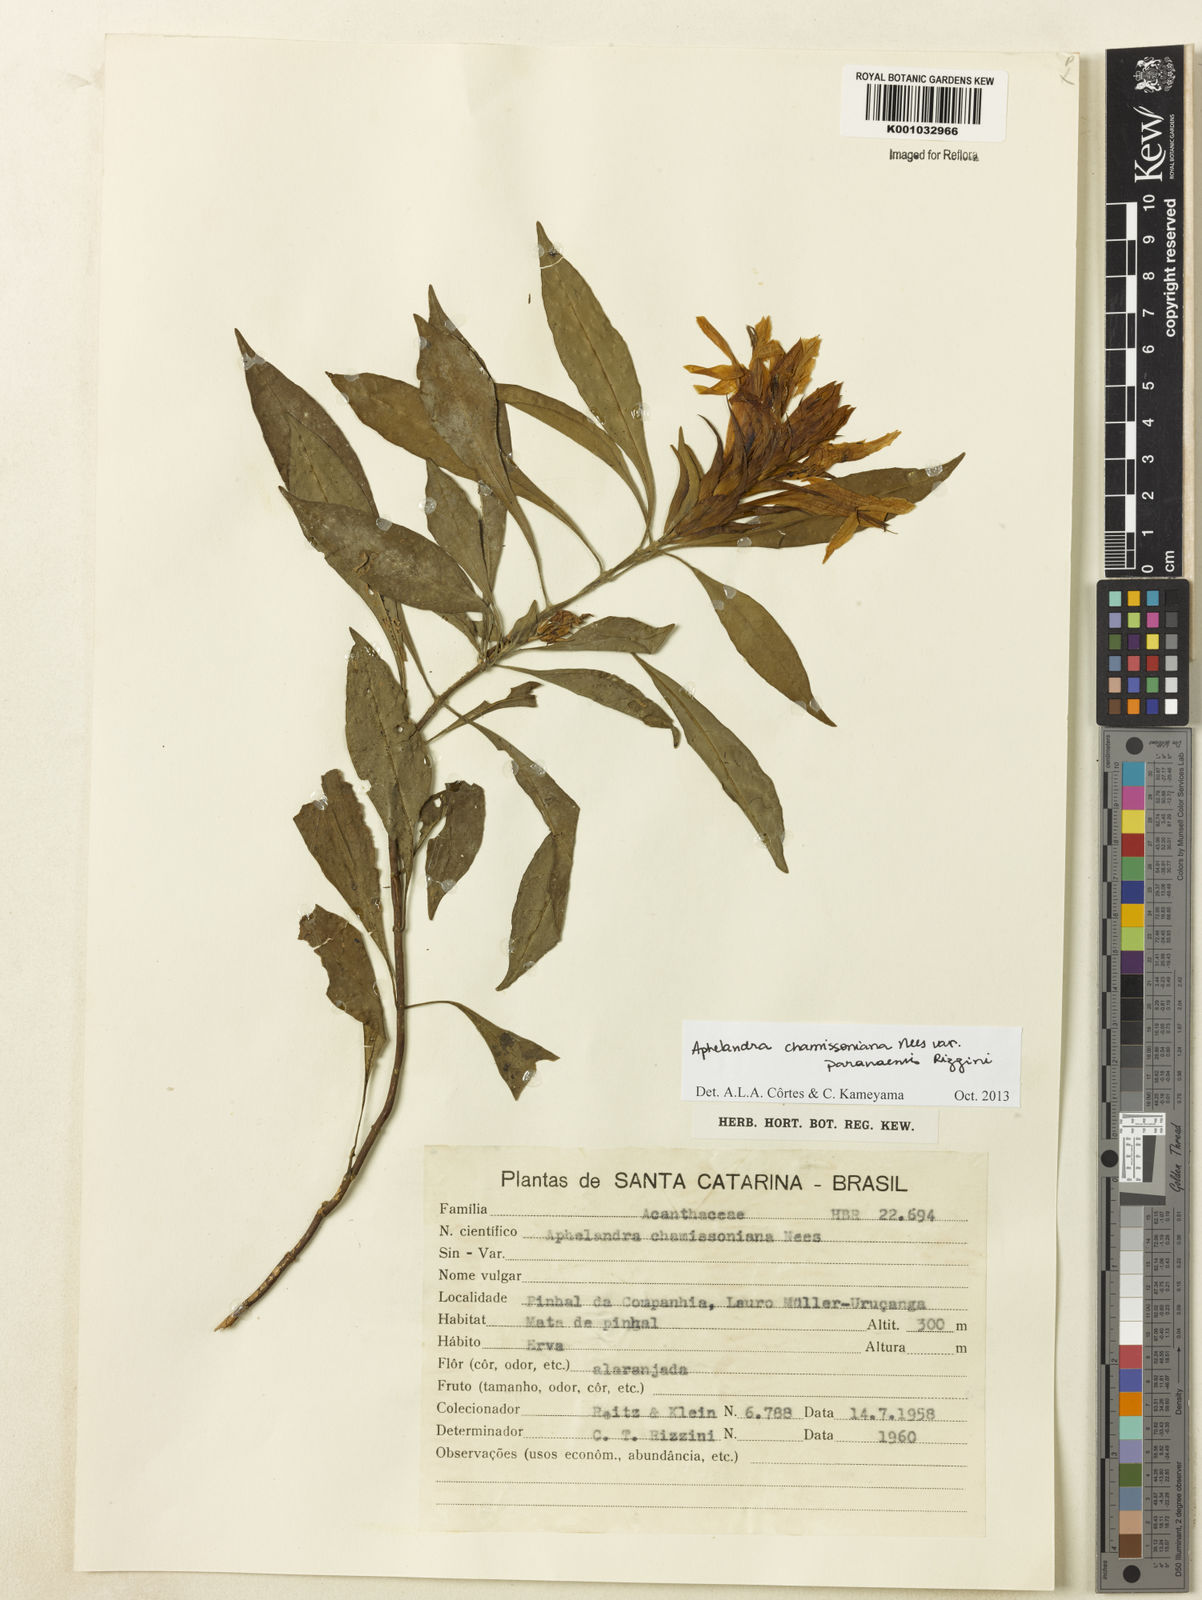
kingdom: Plantae
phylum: Tracheophyta
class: Magnoliopsida
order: Lamiales
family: Acanthaceae
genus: Aphelandra
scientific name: Aphelandra chamissoniana
